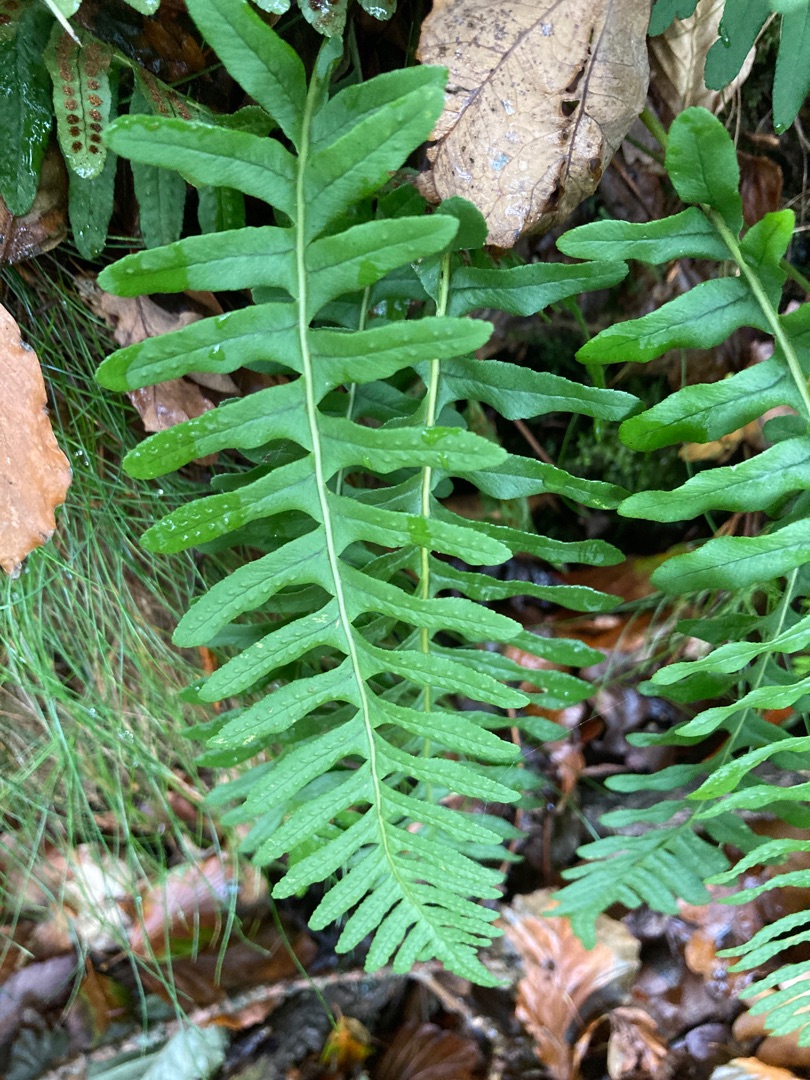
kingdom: Plantae
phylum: Tracheophyta
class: Polypodiopsida
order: Polypodiales
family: Polypodiaceae
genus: Polypodium
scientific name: Polypodium vulgare
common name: Almindelig engelsød
